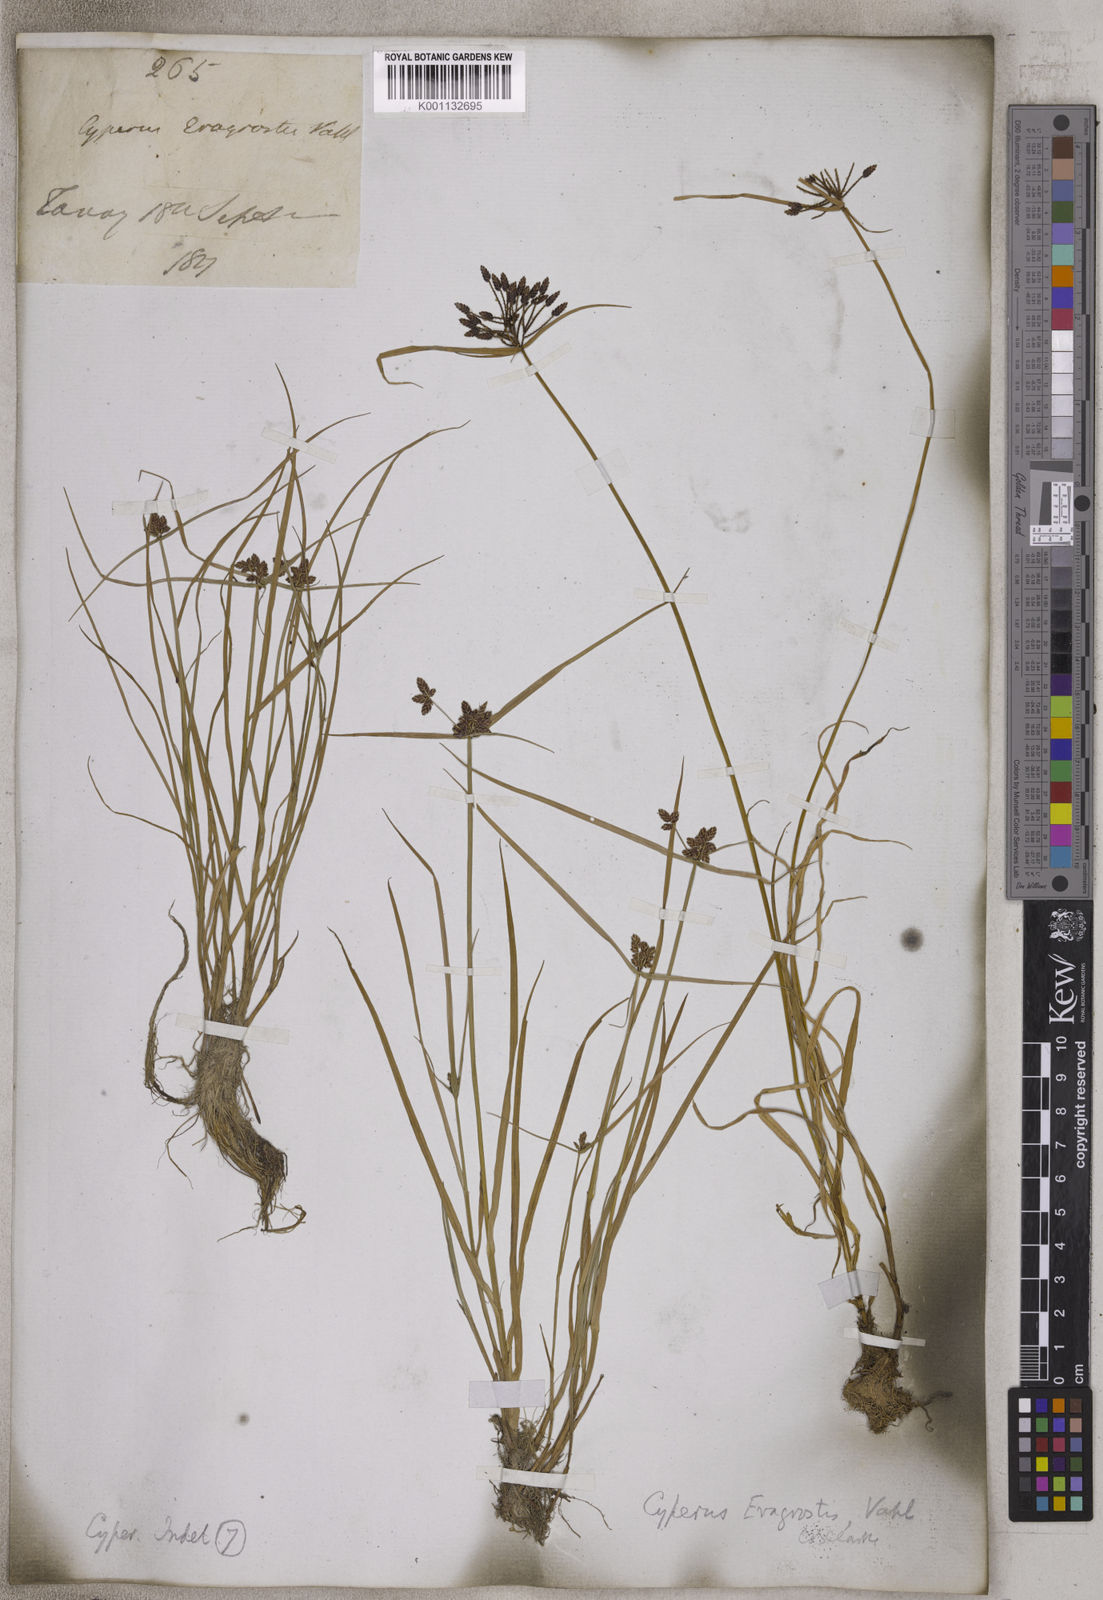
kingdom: Plantae
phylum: Tracheophyta
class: Liliopsida
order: Poales
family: Cyperaceae
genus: Cyperus
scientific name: Cyperus sanguinolentus
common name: Purpleglume flatsedge
